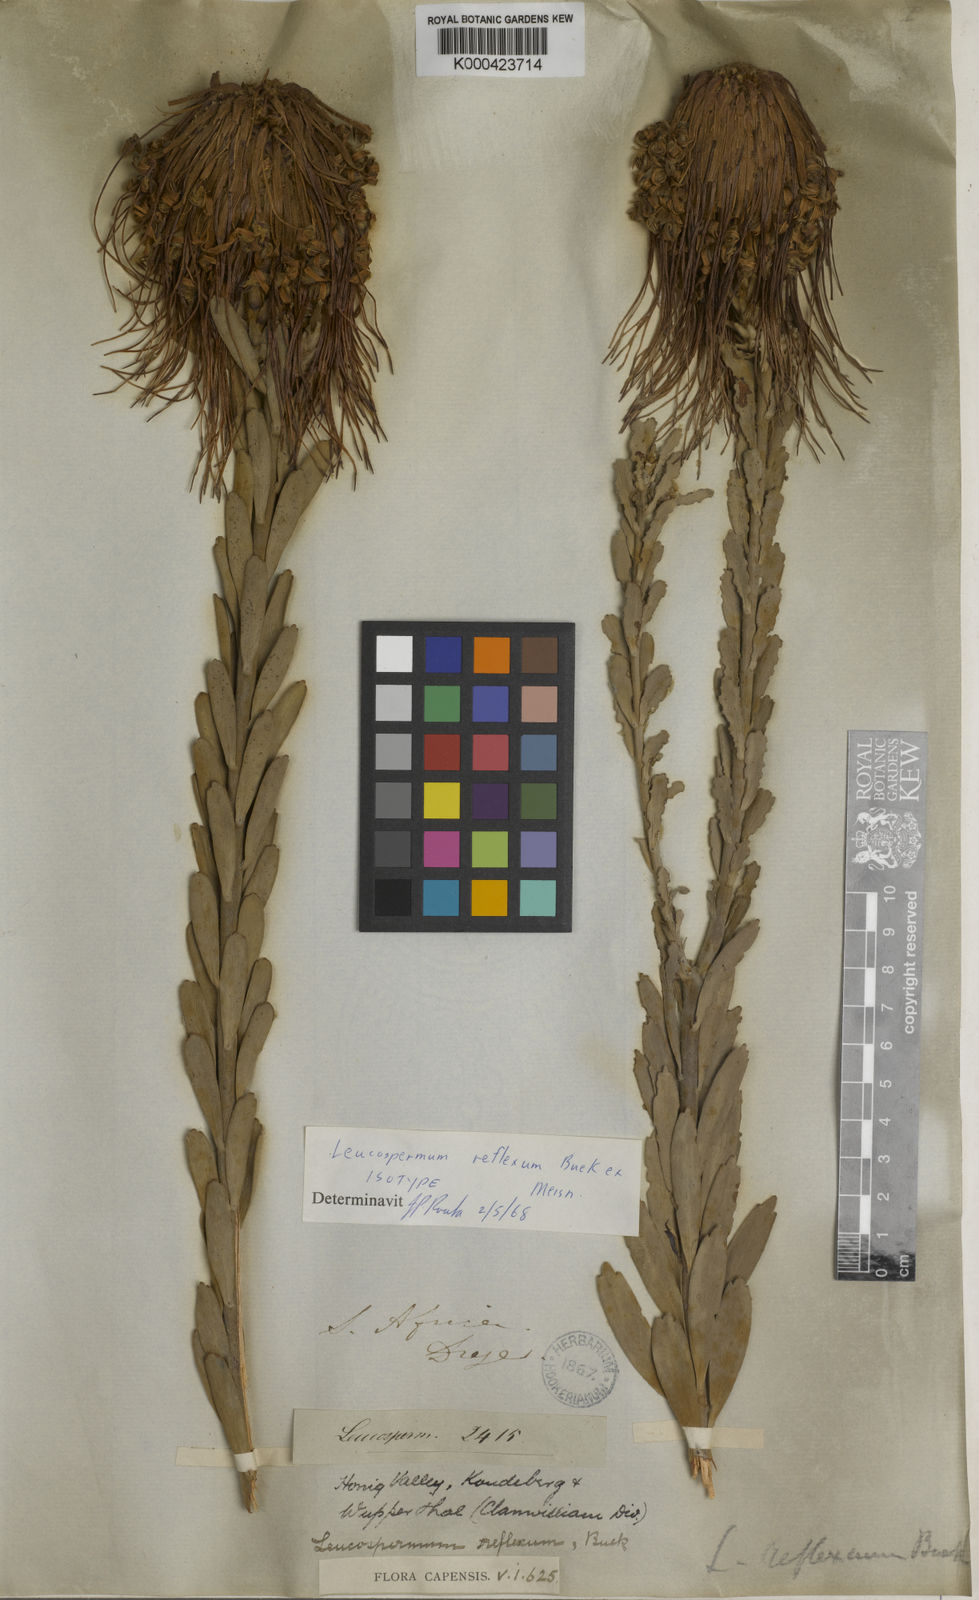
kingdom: Plantae
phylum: Tracheophyta
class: Magnoliopsida
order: Proteales
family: Proteaceae
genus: Leucospermum
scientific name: Leucospermum reflexum
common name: Rocket pincushion
